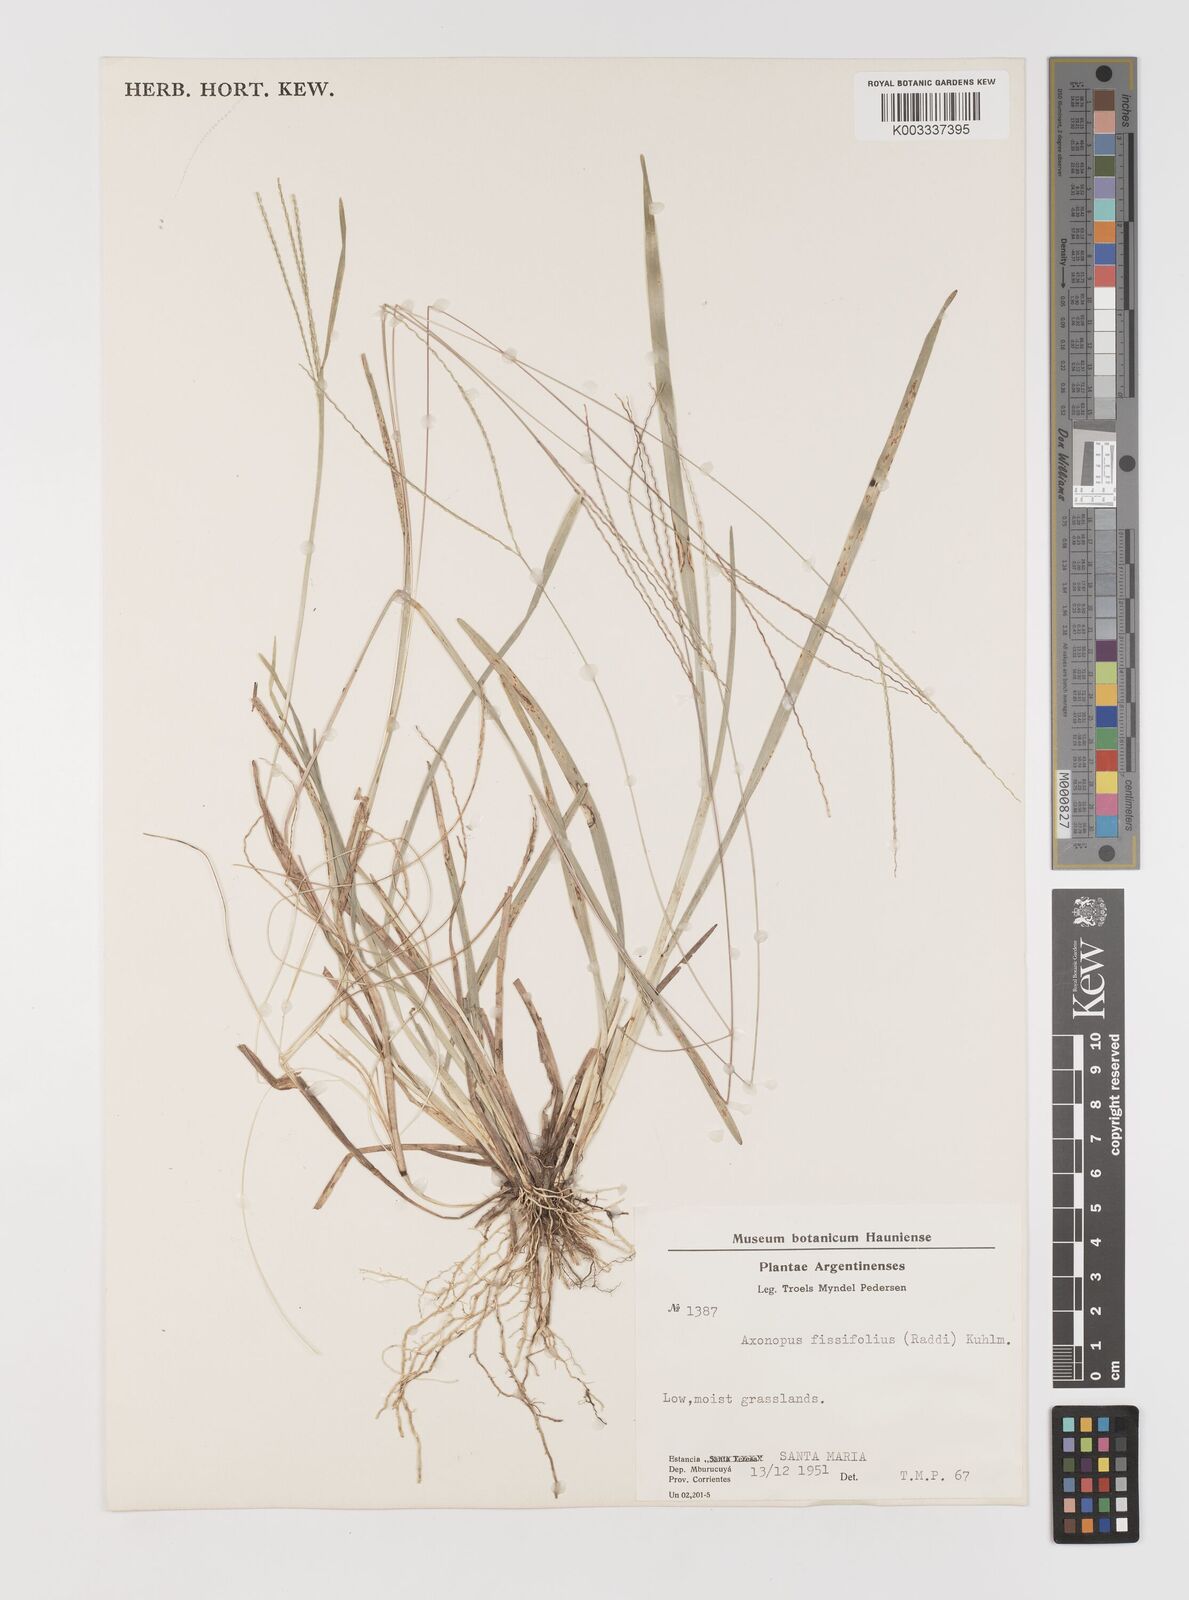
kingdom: Plantae
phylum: Tracheophyta
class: Liliopsida
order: Poales
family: Poaceae
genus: Axonopus
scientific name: Axonopus fissifolius
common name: Common carpetgrass
